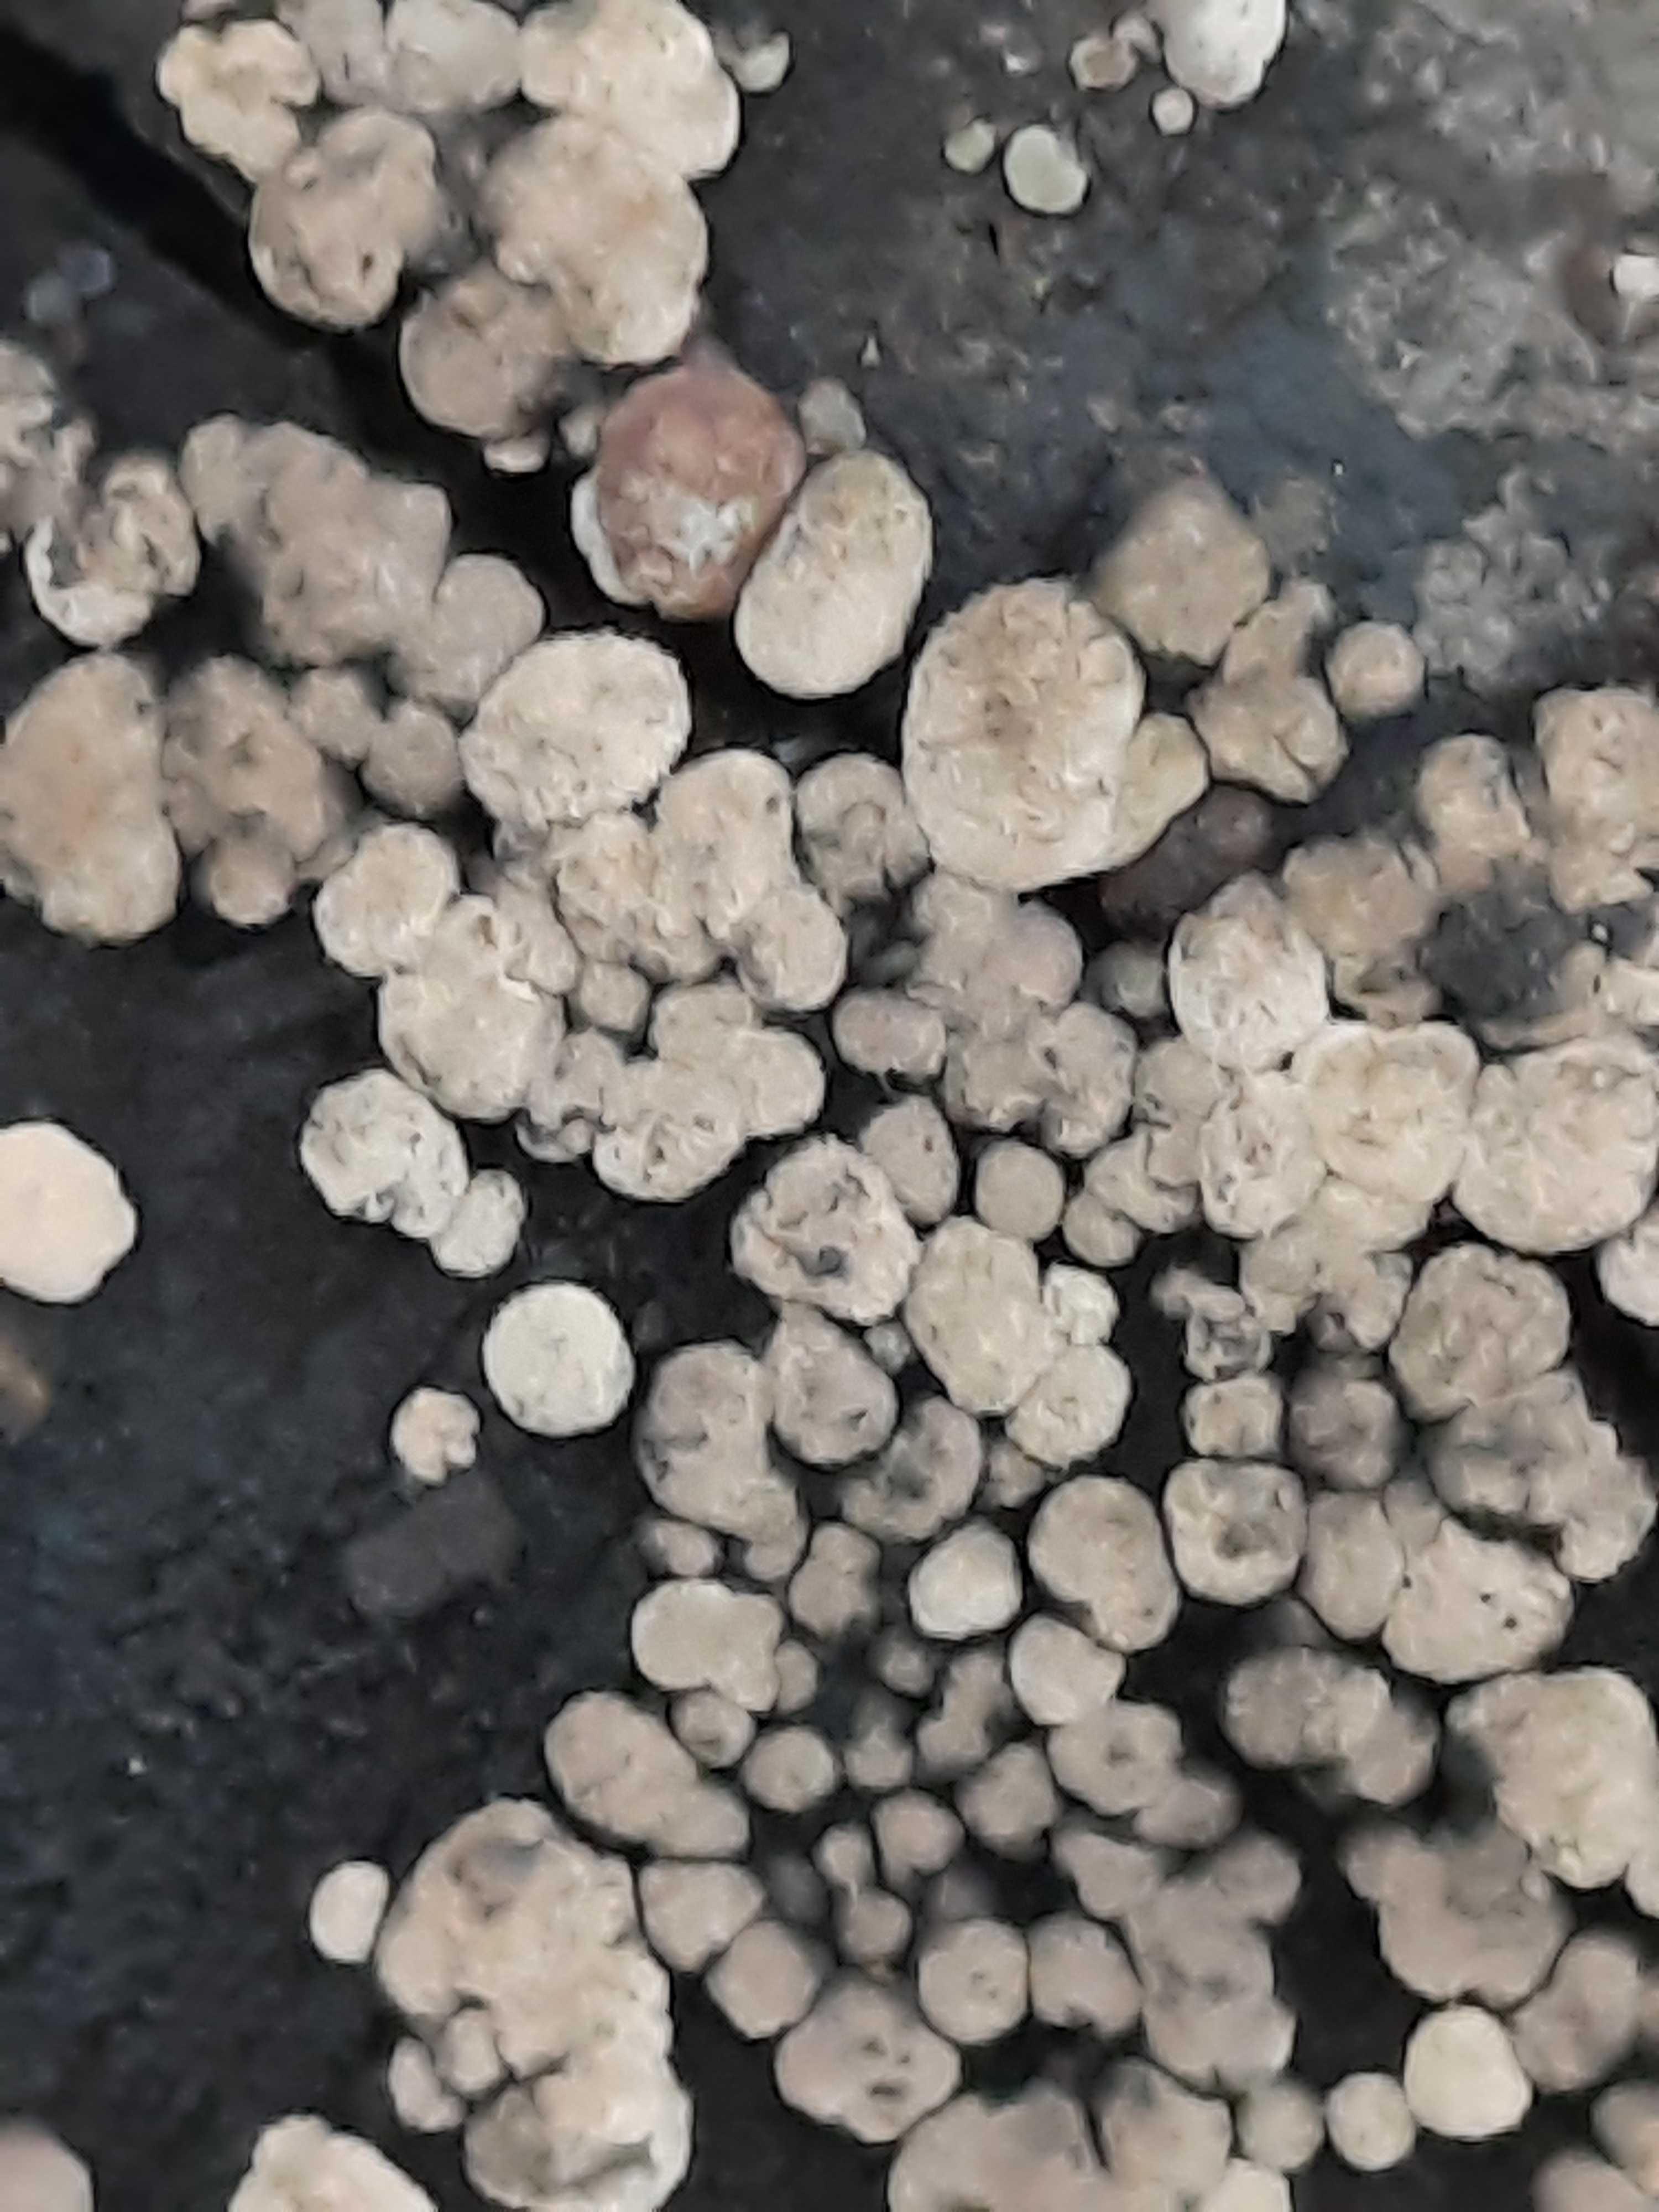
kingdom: Fungi
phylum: Ascomycota
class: Sordariomycetes
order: Xylariales
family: Hypoxylaceae
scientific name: Hypoxylaceae
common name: kulbærfamilien
